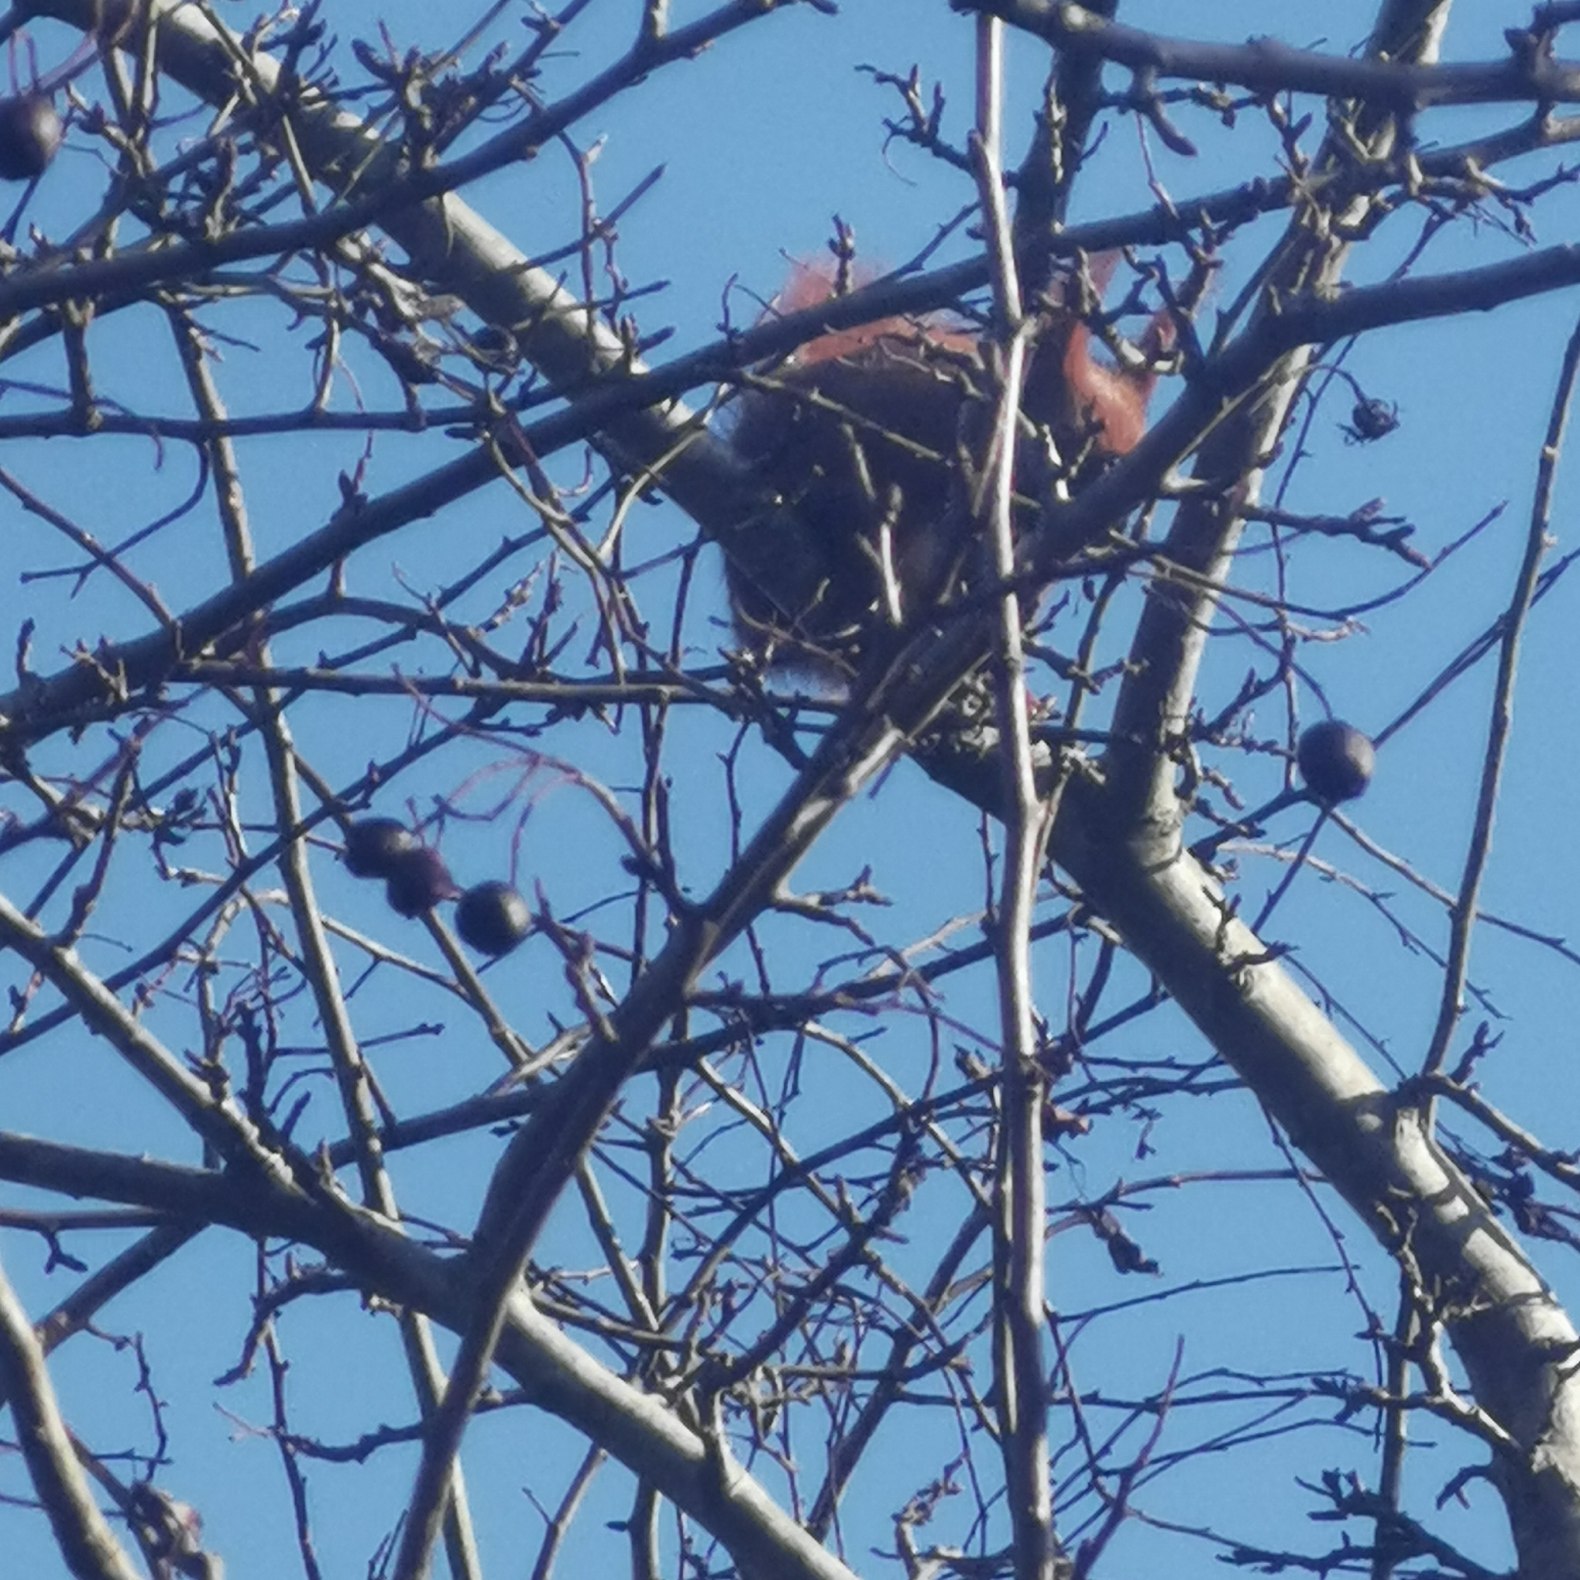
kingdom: Animalia
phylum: Chordata
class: Mammalia
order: Rodentia
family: Sciuridae
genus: Sciurus
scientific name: Sciurus vulgaris
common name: Egern
